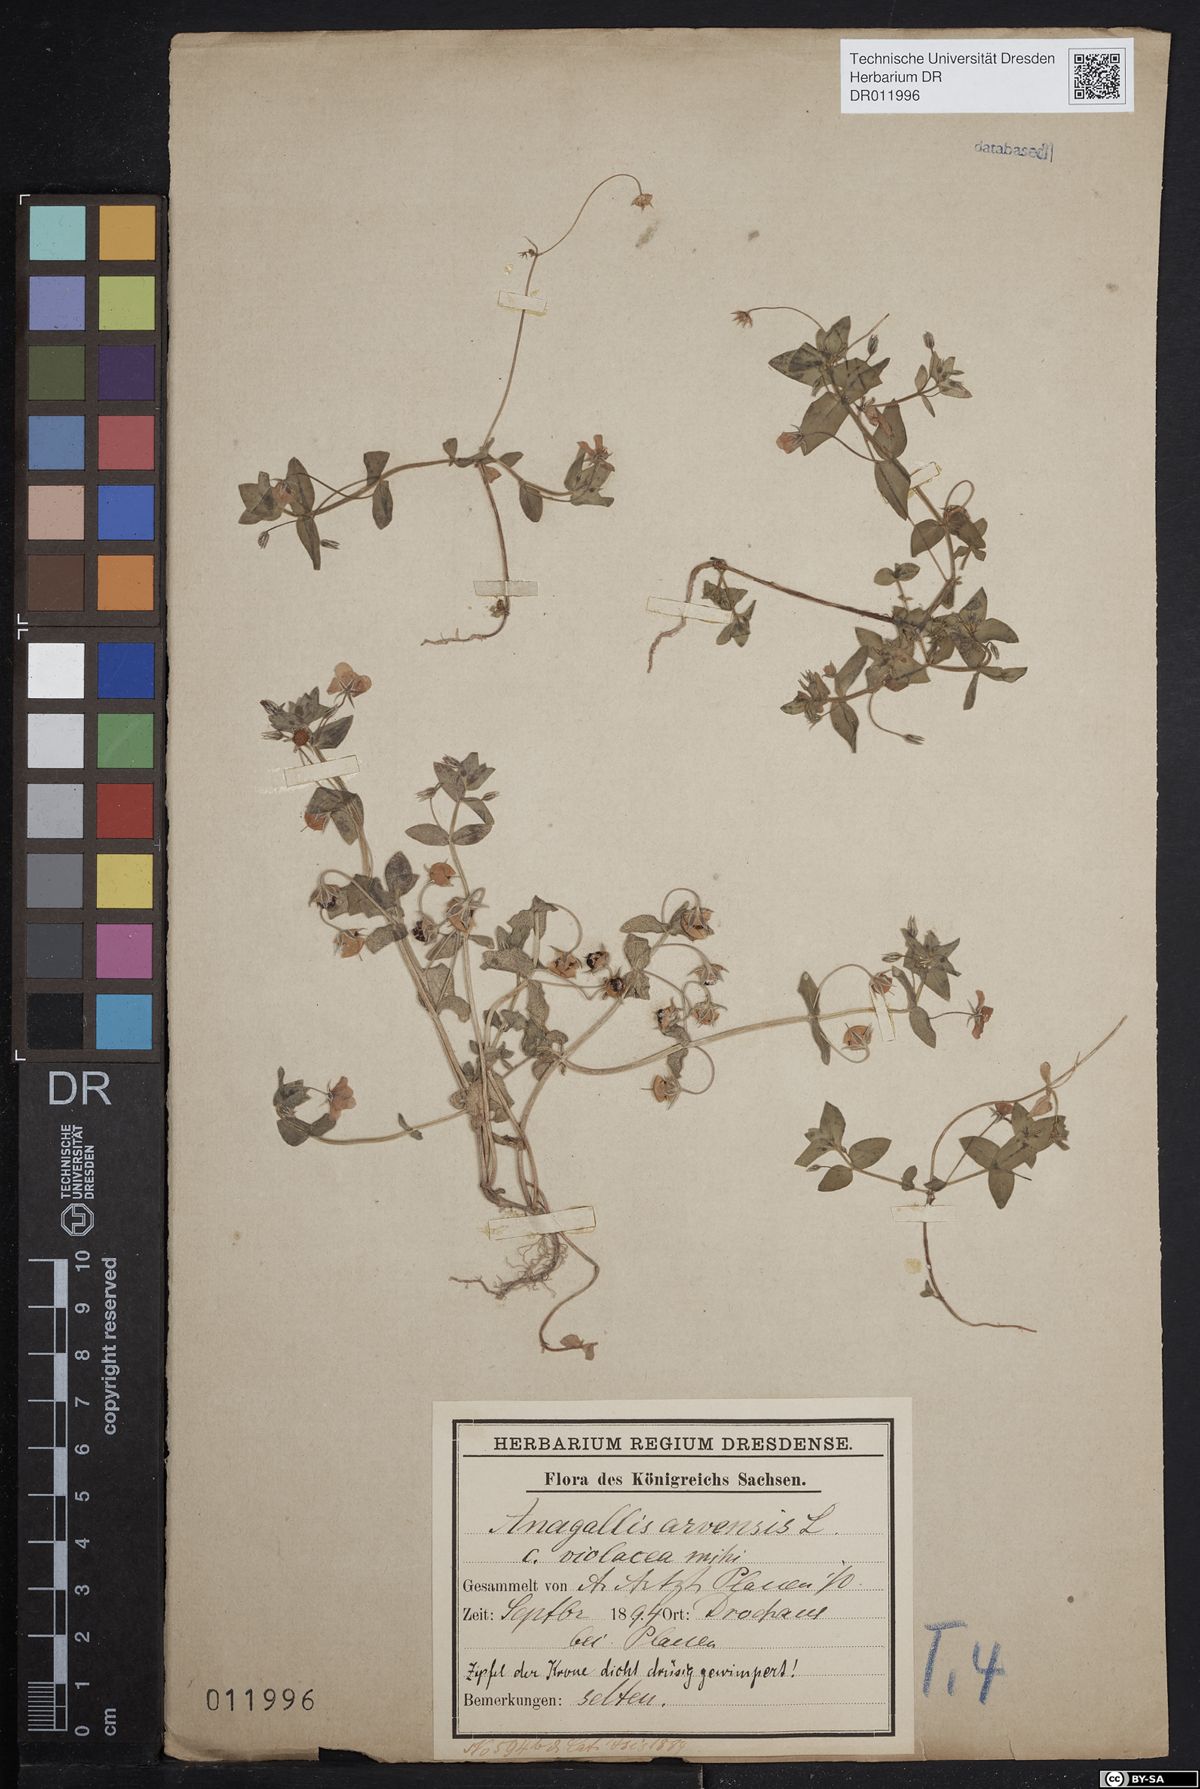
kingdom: Plantae
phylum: Tracheophyta
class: Magnoliopsida
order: Ericales
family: Primulaceae
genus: Lysimachia
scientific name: Lysimachia arvensis
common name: Scarlet pimpernel
